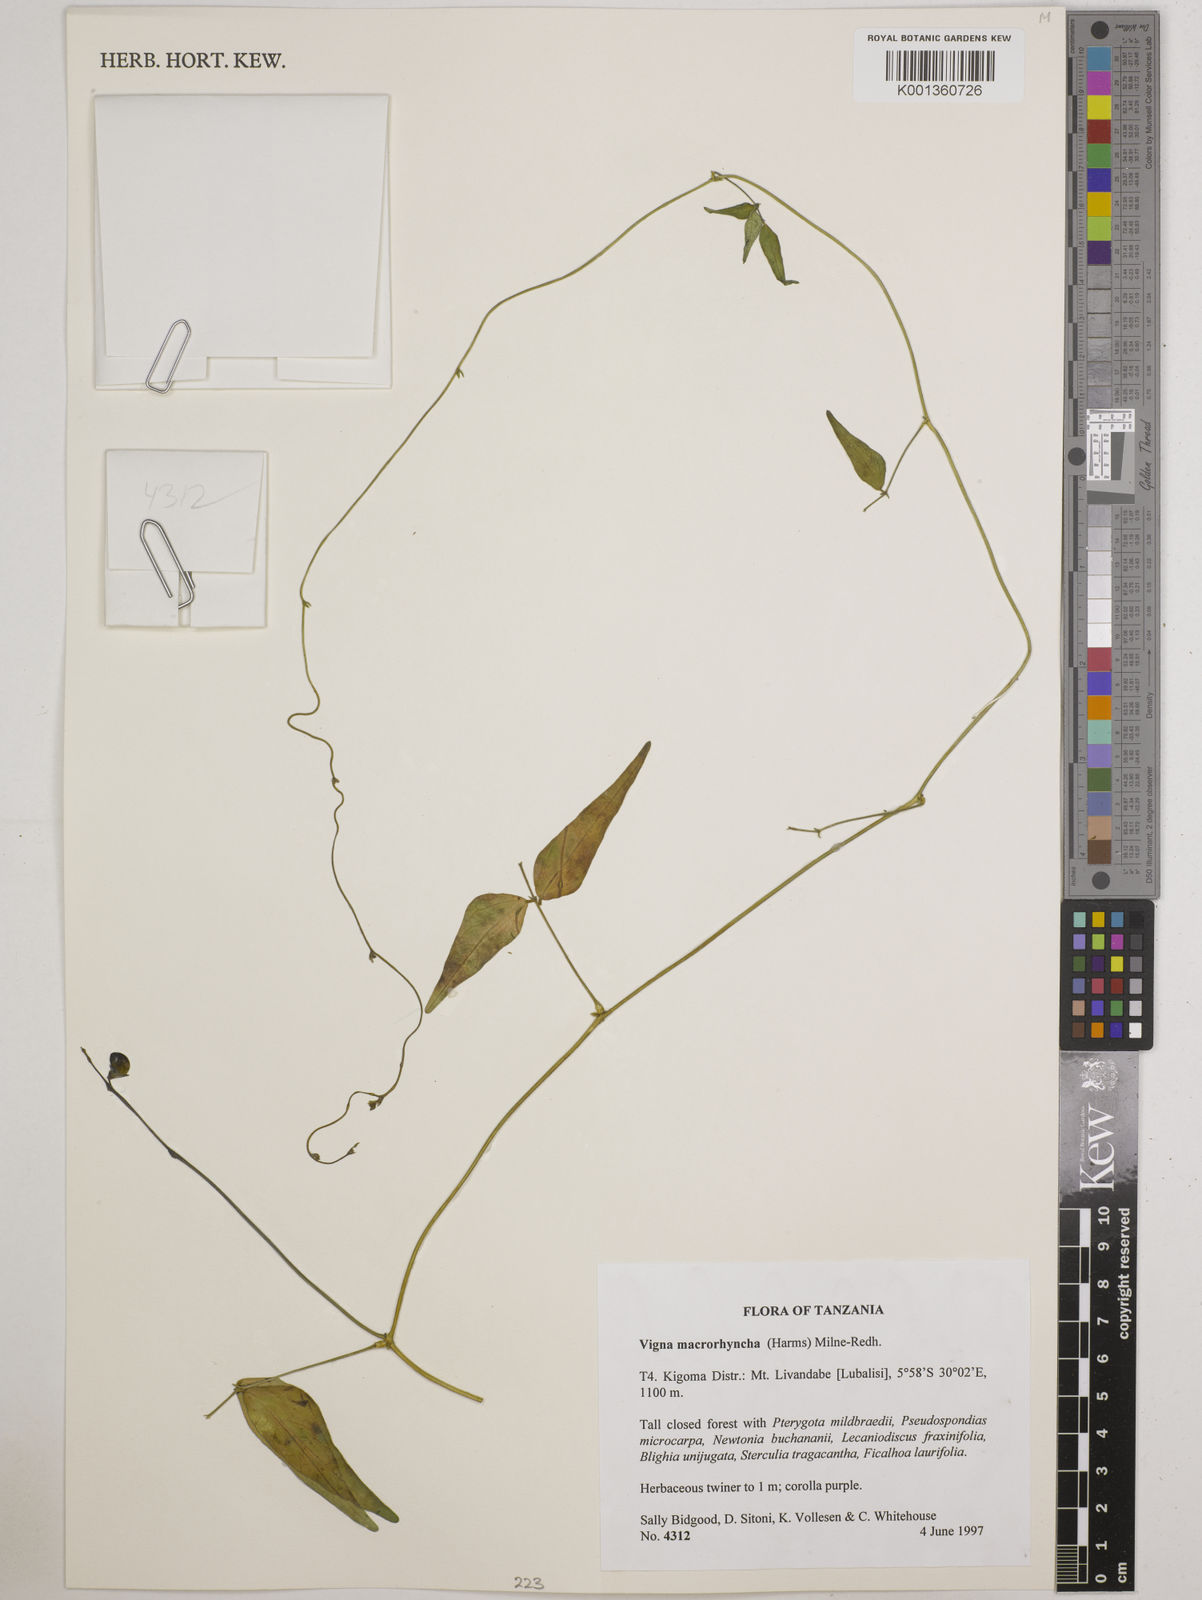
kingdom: Plantae
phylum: Tracheophyta
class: Magnoliopsida
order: Fabales
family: Fabaceae
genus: Wajira
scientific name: Wajira grahamiana
